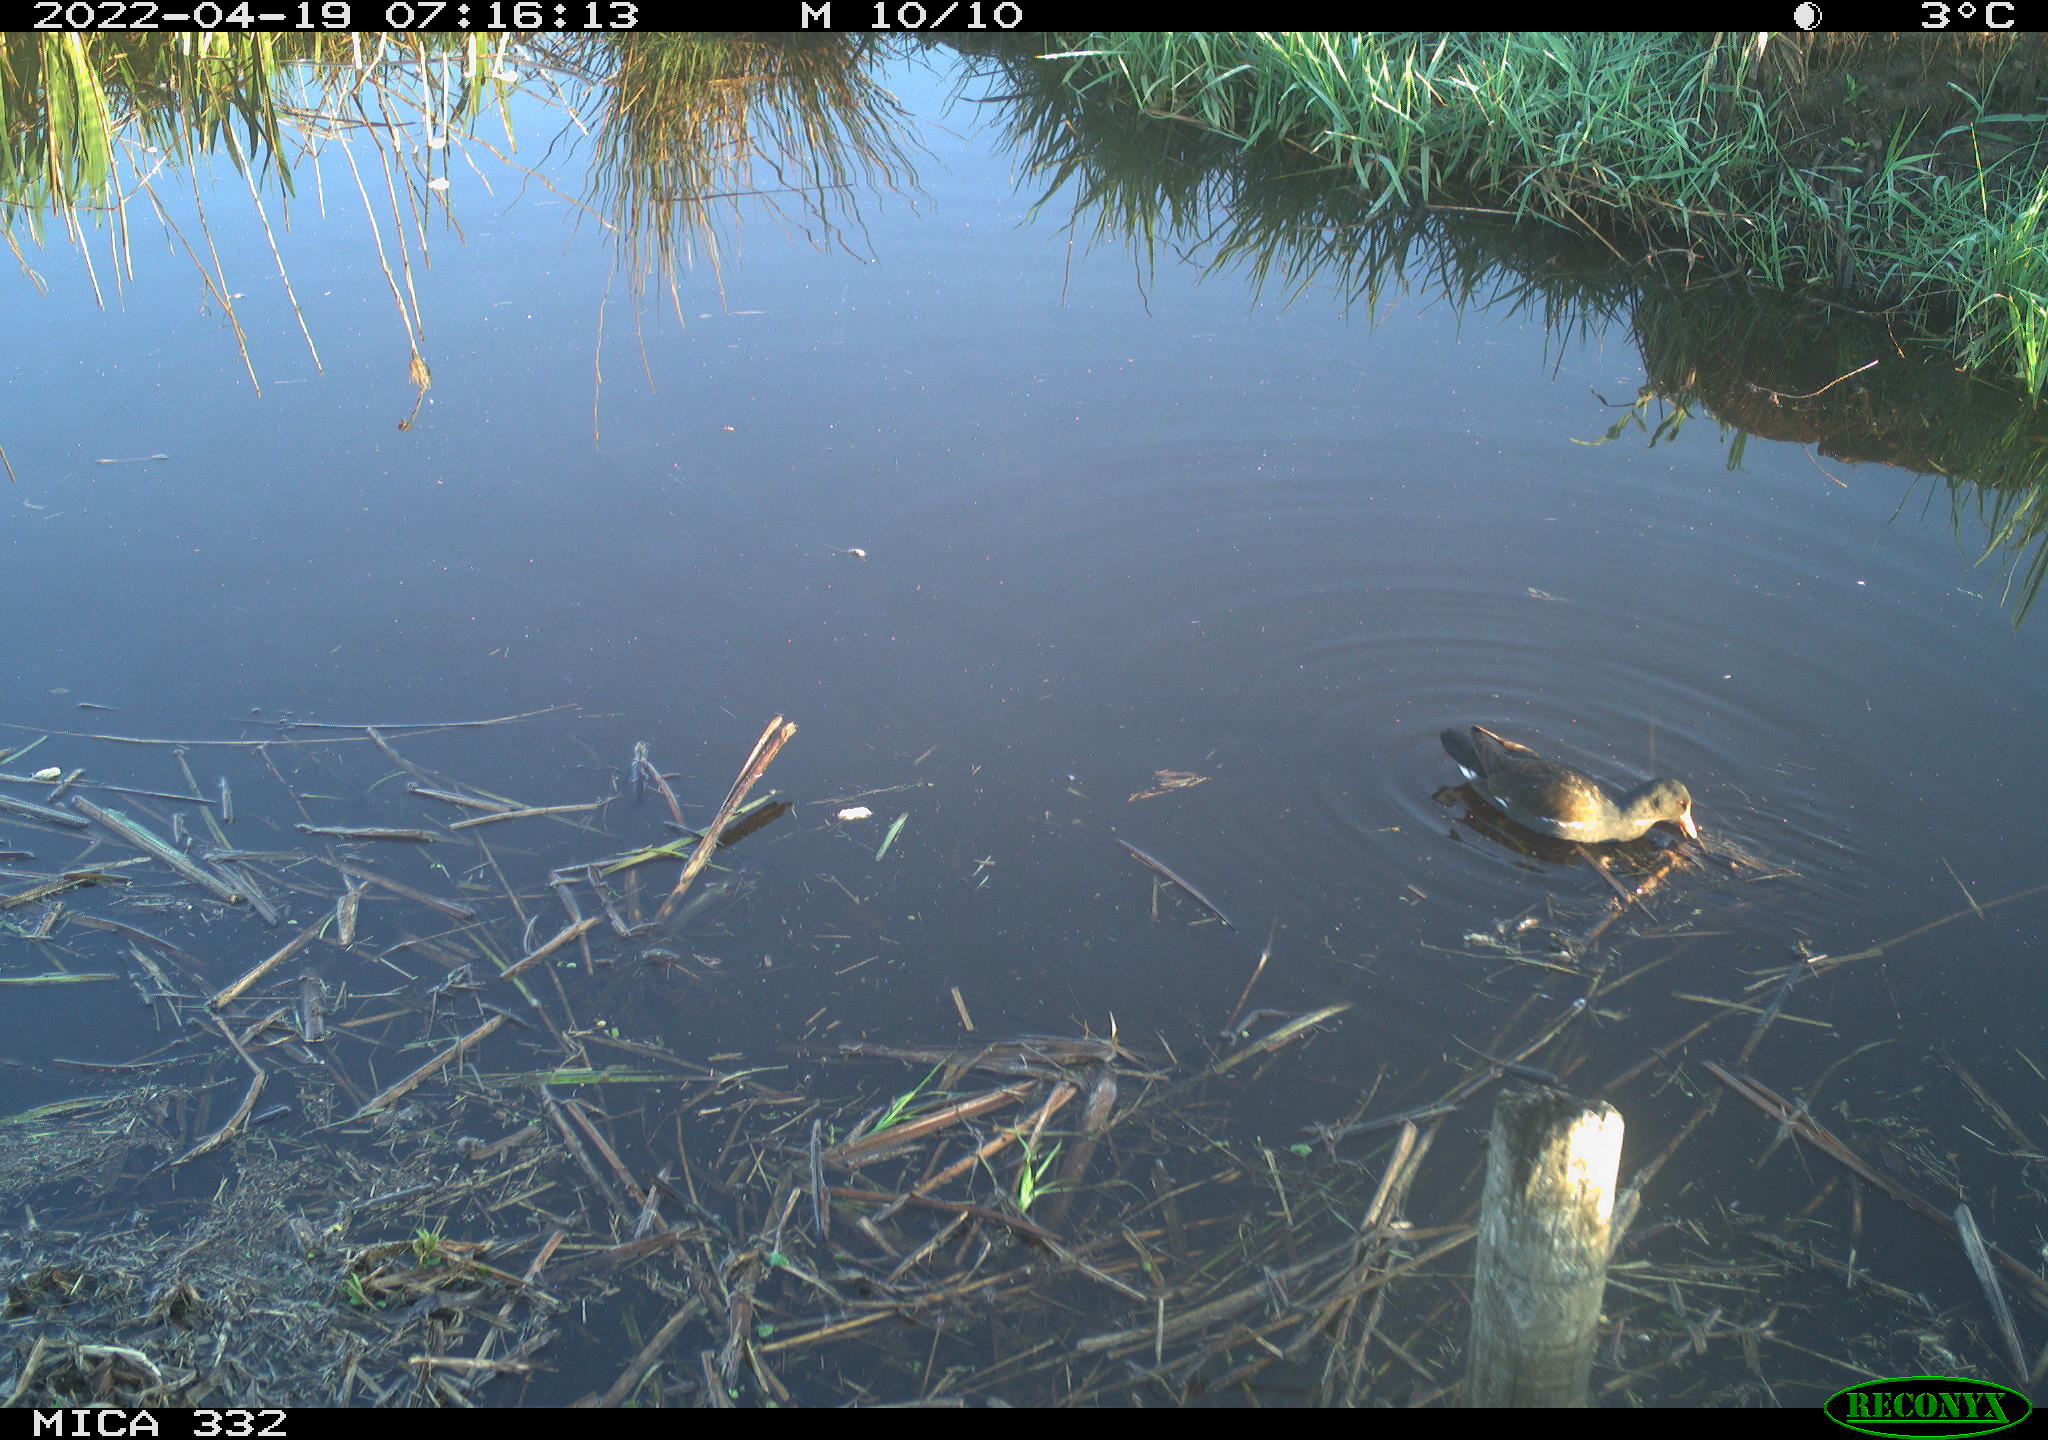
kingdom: Animalia
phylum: Chordata
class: Aves
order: Gruiformes
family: Rallidae
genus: Gallinula
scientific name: Gallinula chloropus
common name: Common moorhen
